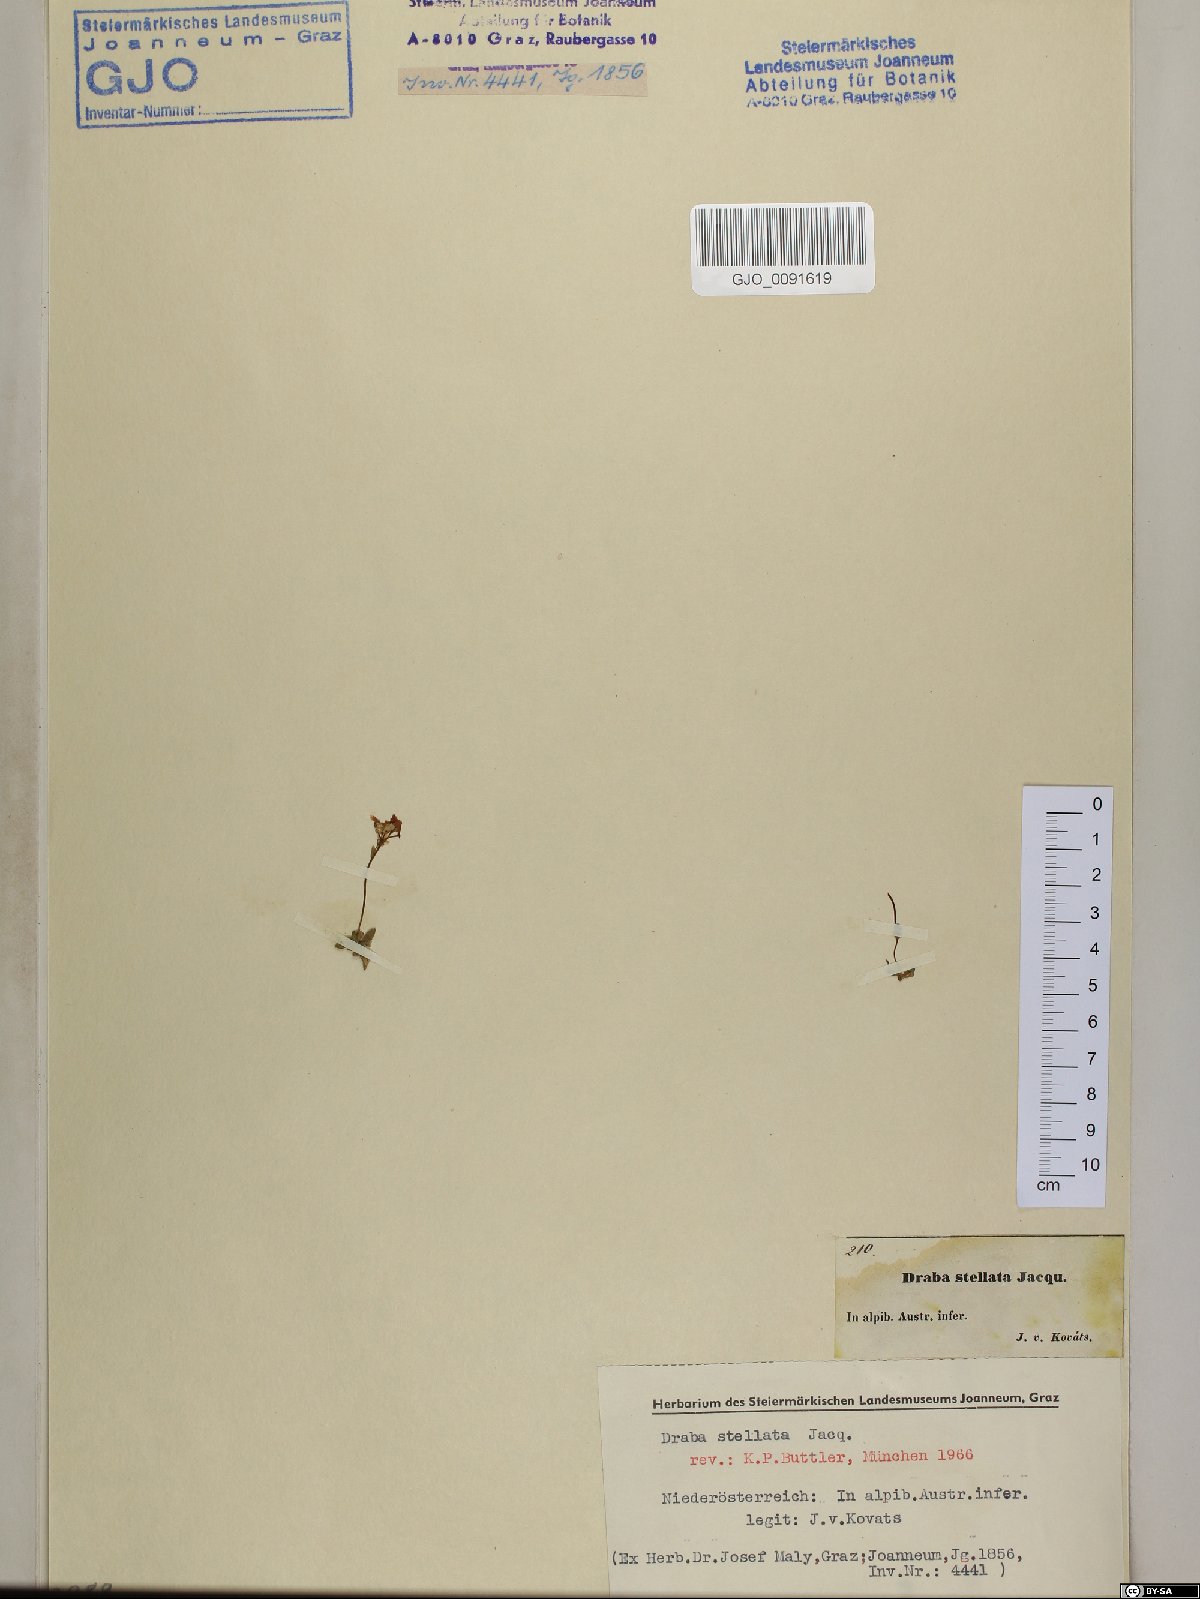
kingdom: Plantae
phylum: Tracheophyta
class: Magnoliopsida
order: Brassicales
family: Brassicaceae
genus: Draba
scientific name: Draba stellata
